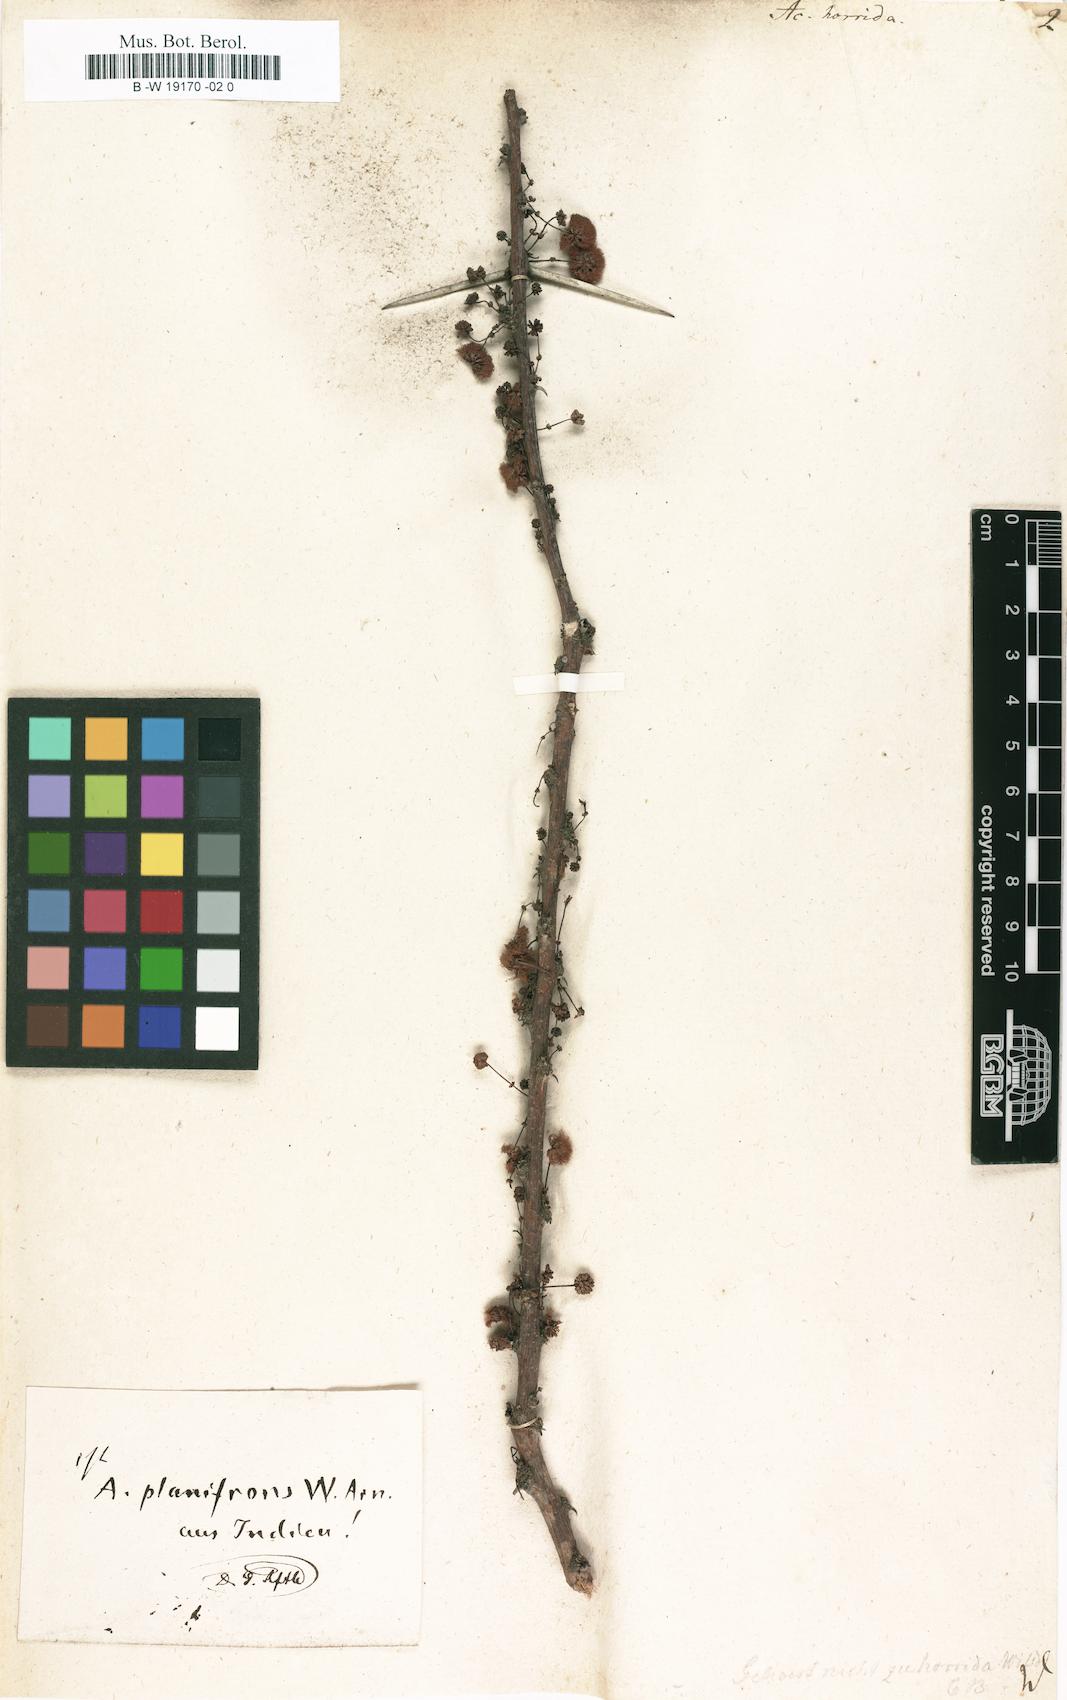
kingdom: Plantae
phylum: Tracheophyta
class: Magnoliopsida
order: Fabales
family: Fabaceae
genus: Vachellia
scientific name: Vachellia
